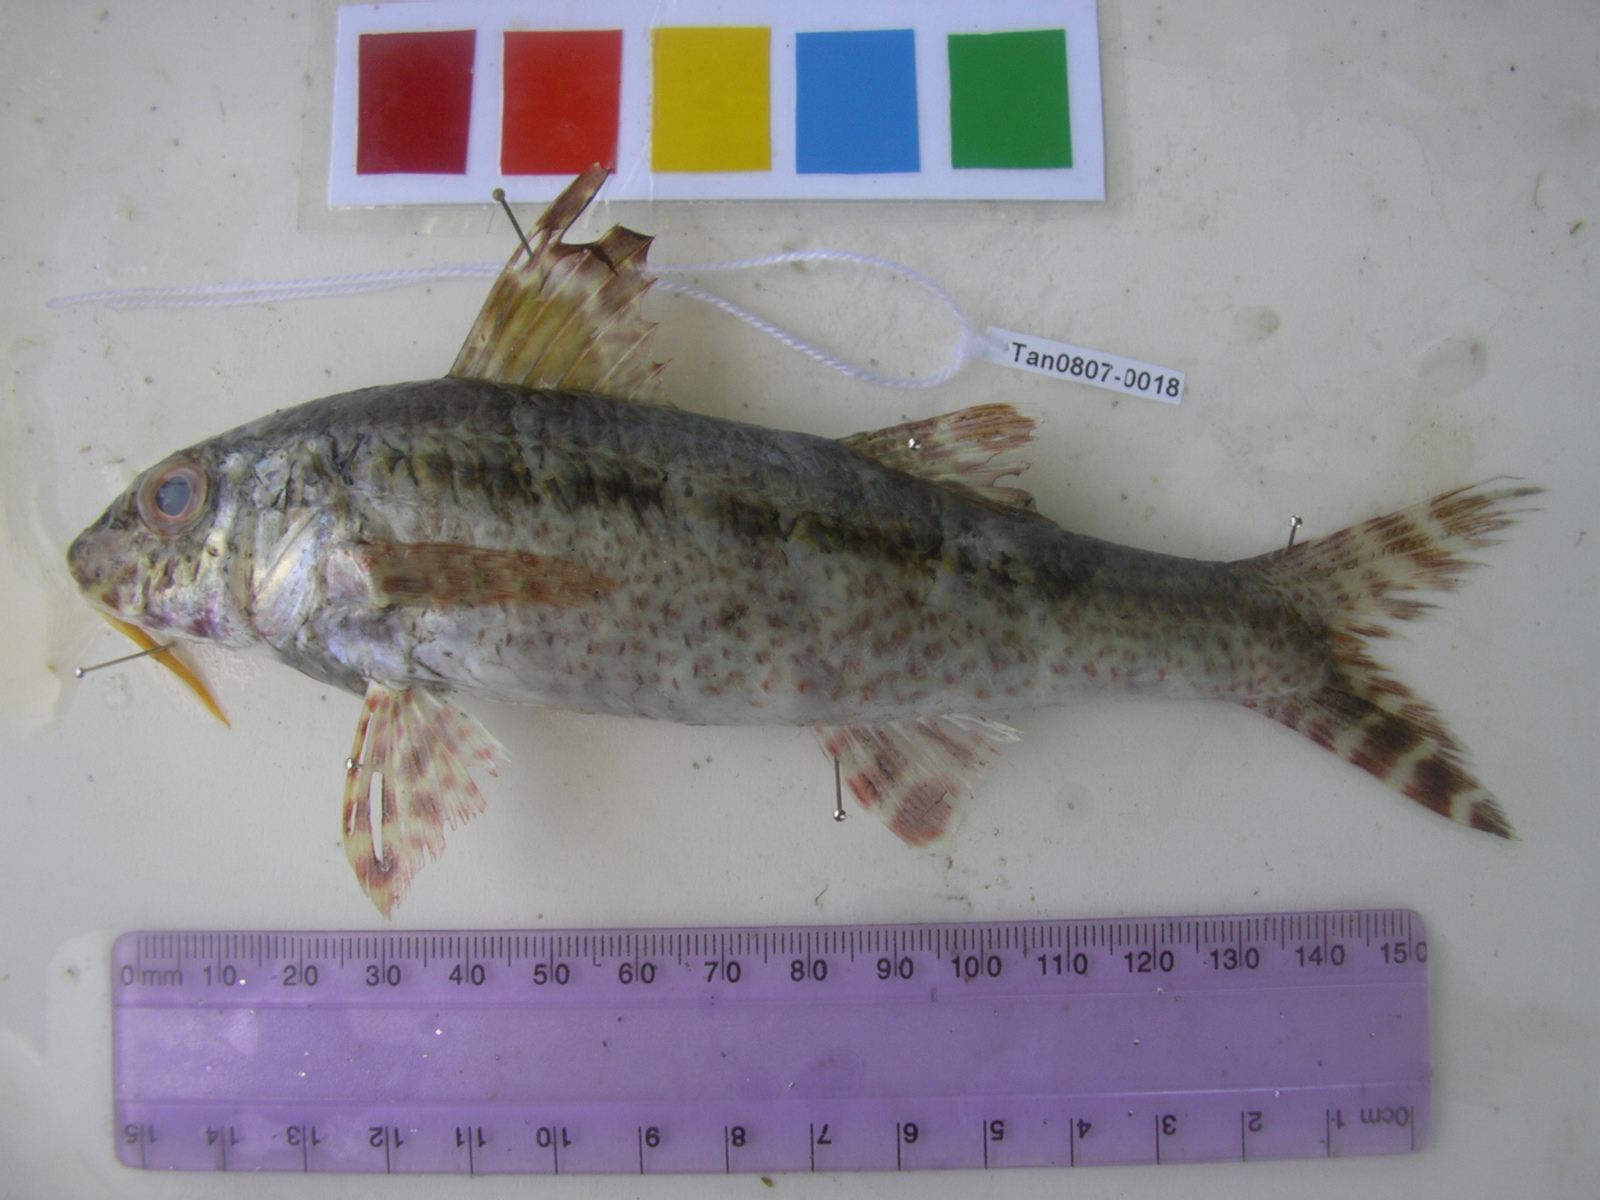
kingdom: Animalia
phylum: Chordata
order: Perciformes
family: Mullidae
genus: Upeneus
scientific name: Upeneus heemstra
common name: Heemstra’s goatfish
